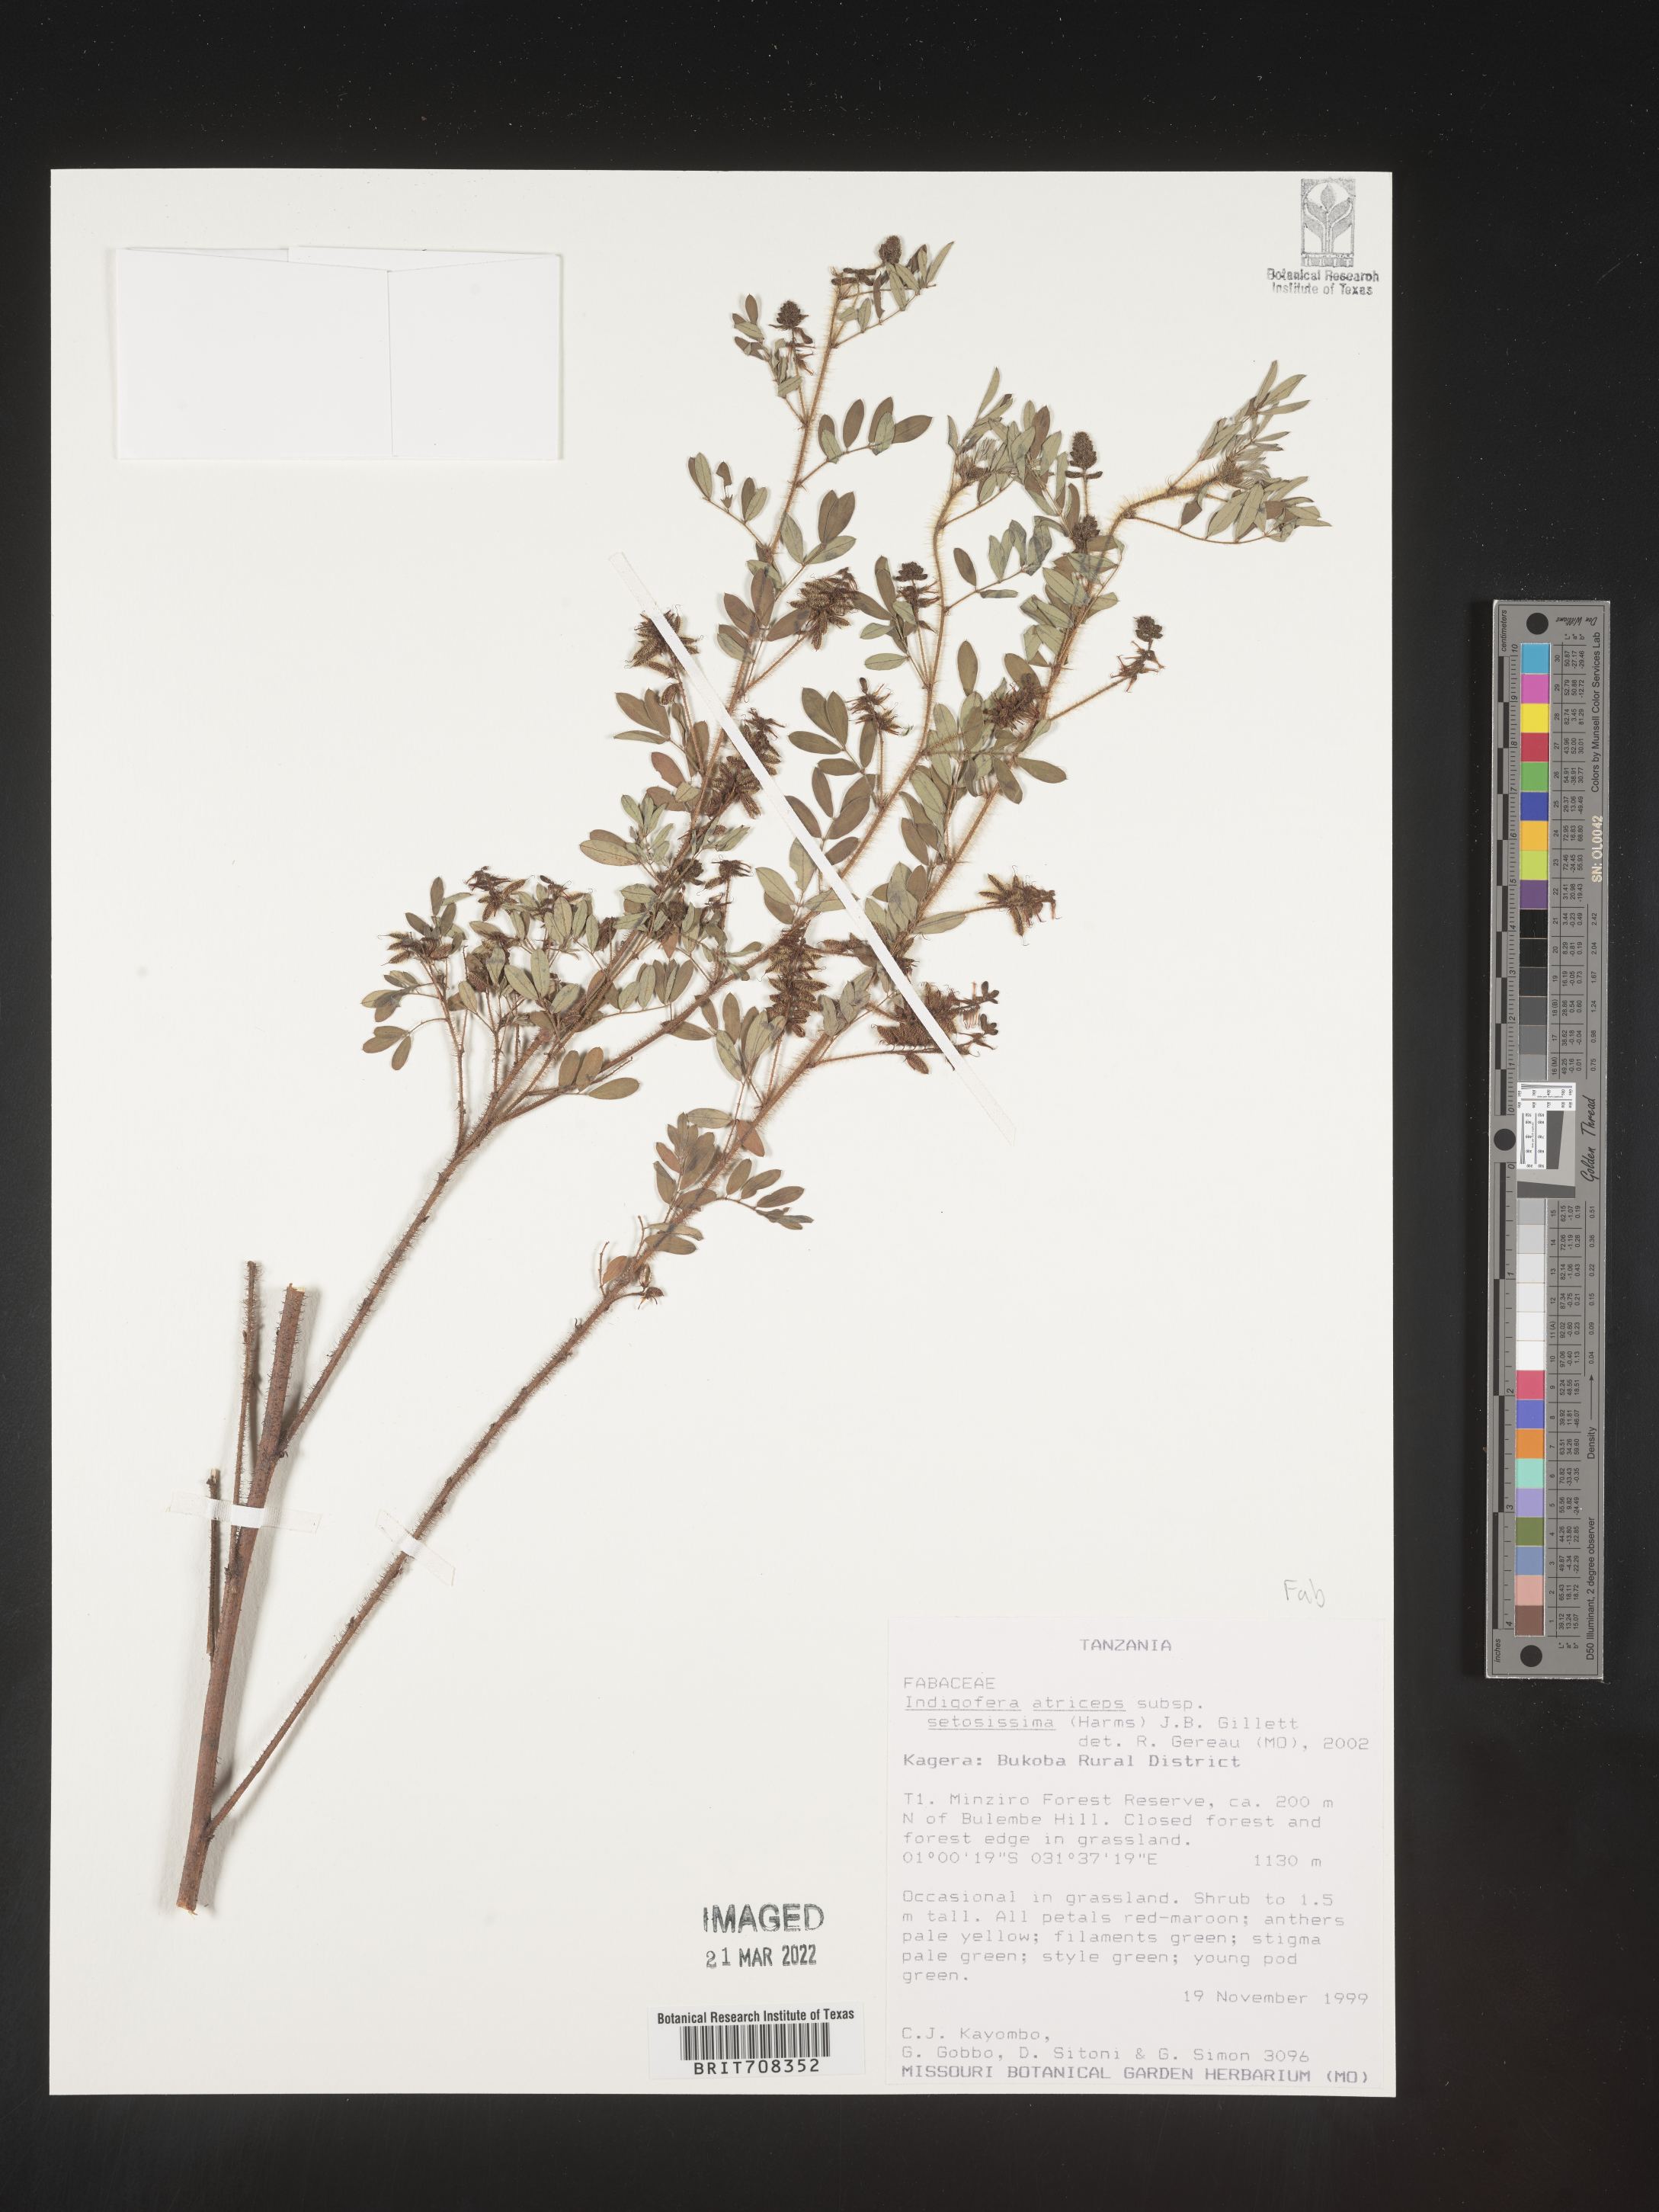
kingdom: Plantae
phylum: Tracheophyta
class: Magnoliopsida
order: Fabales
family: Fabaceae
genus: Indigofera
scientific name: Indigofera
